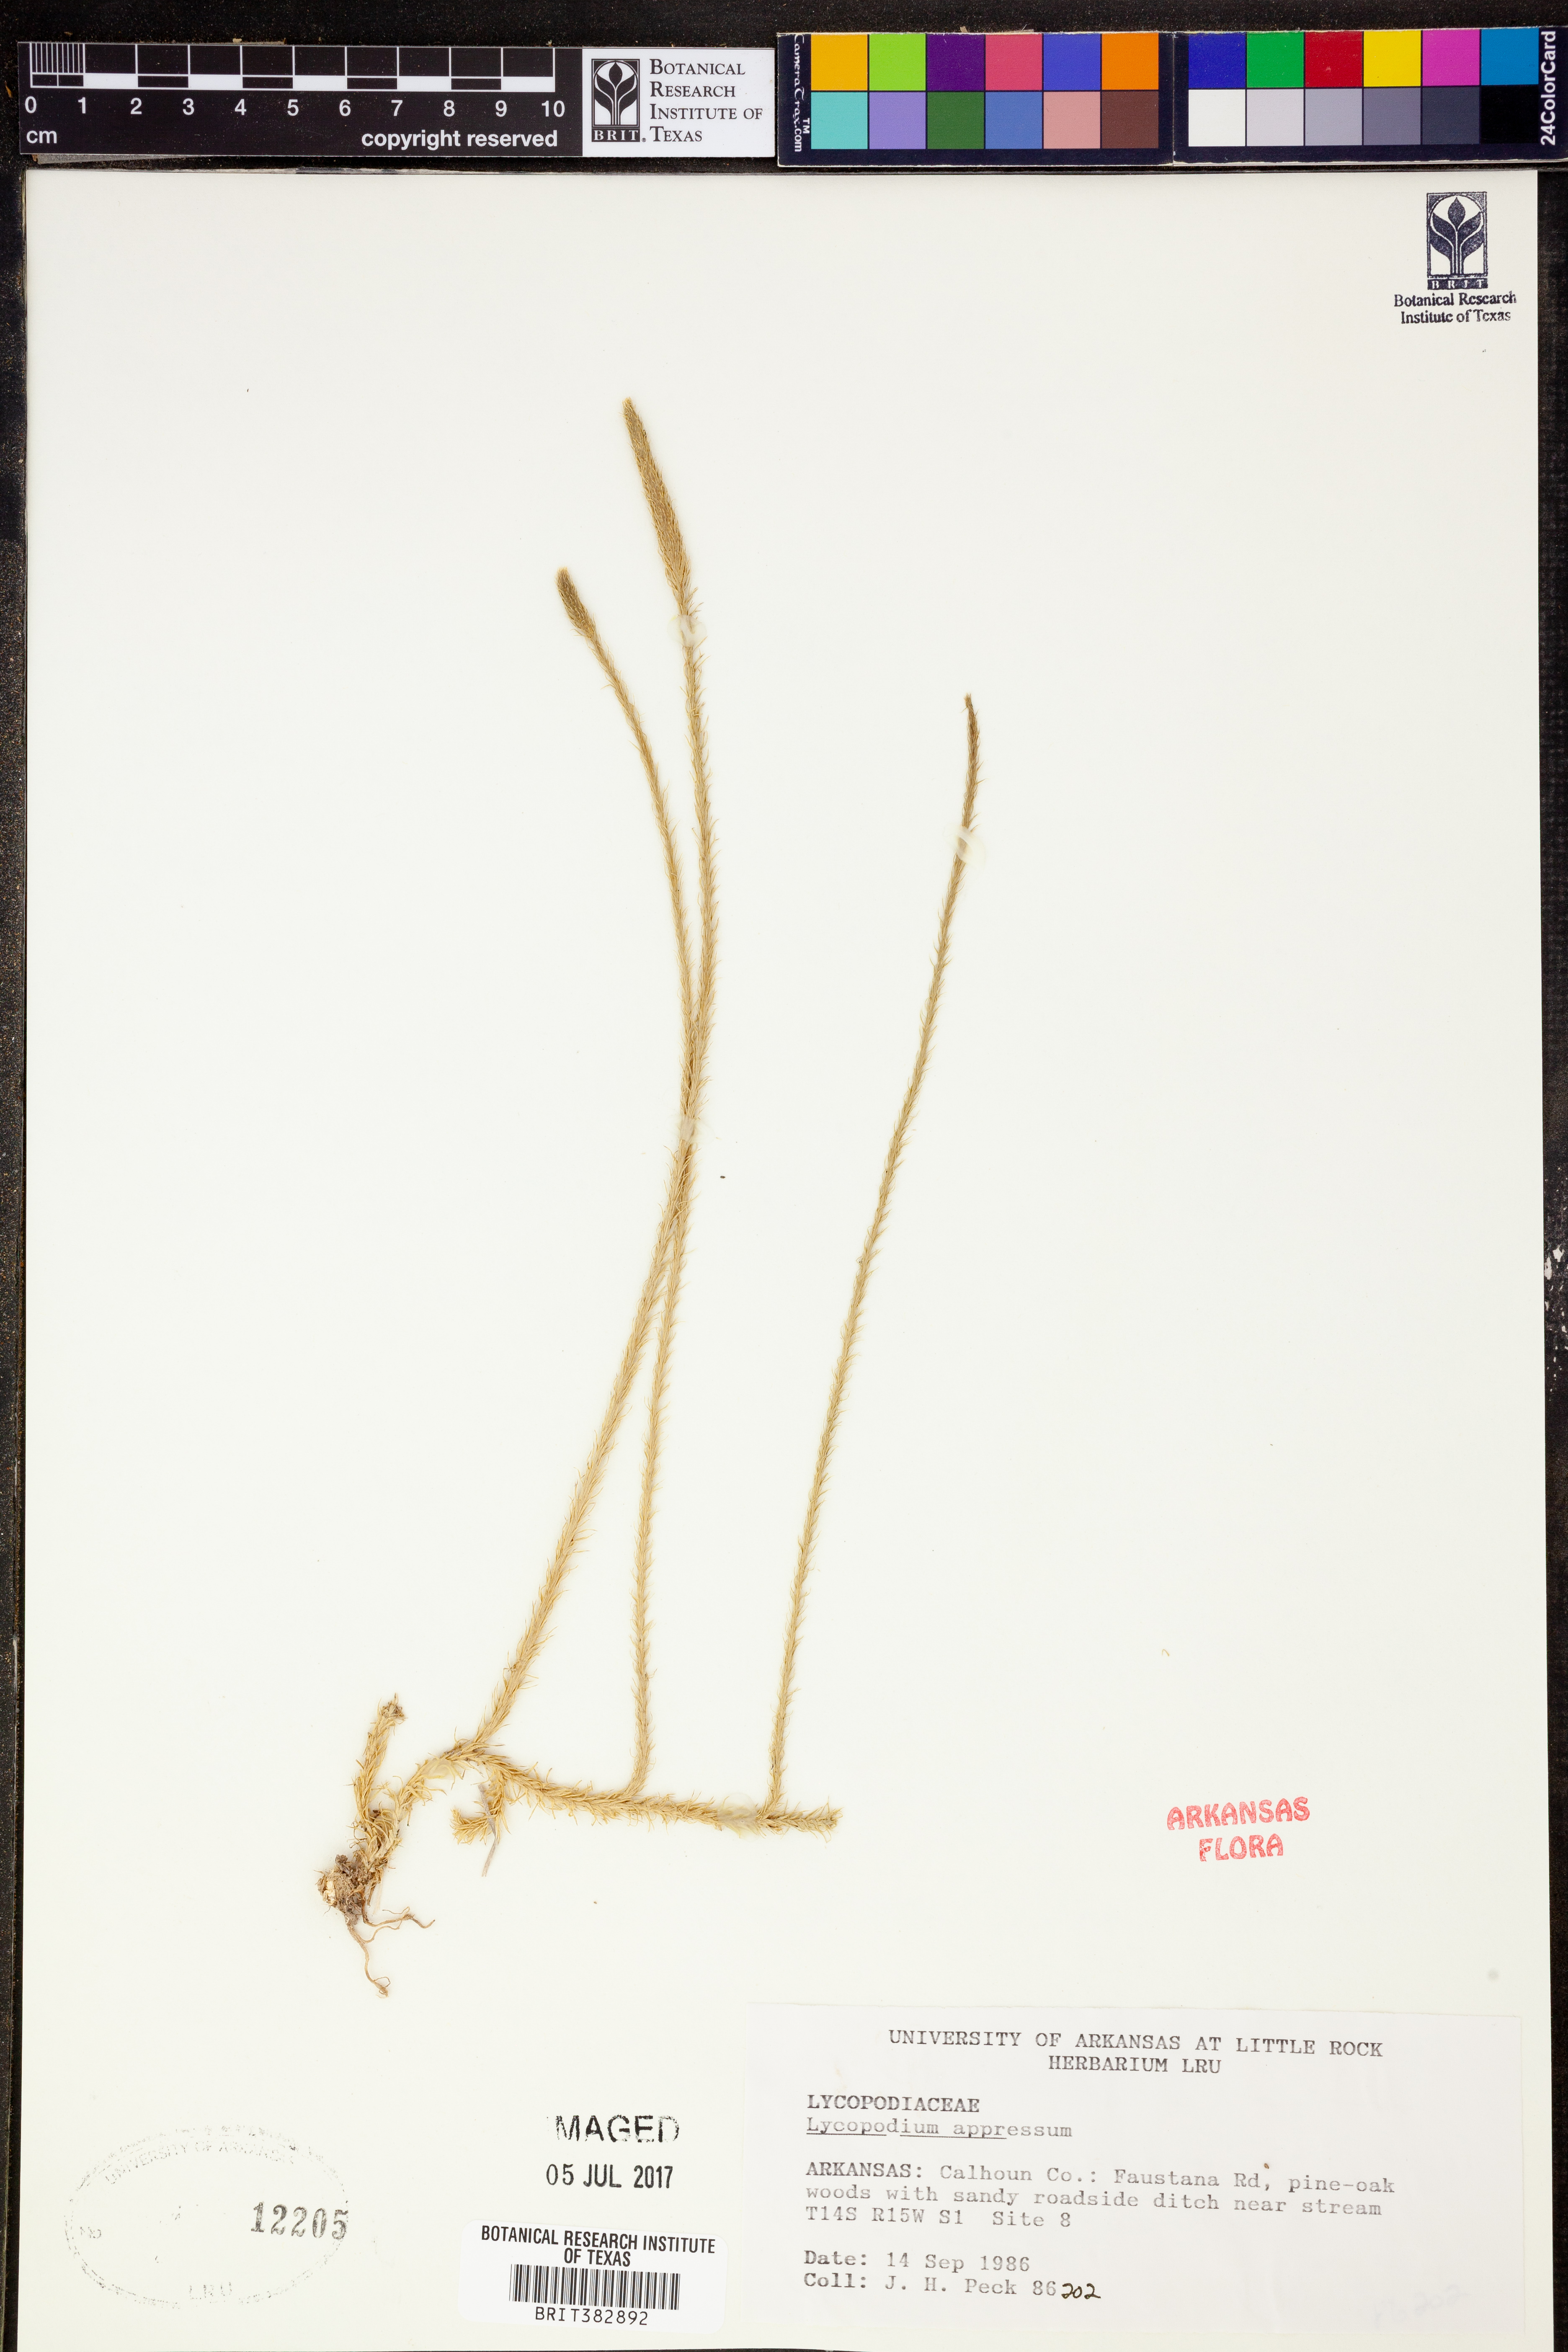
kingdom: Plantae
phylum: Tracheophyta
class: Lycopodiopsida
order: Lycopodiales
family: Lycopodiaceae
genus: Lycopodiella
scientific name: Lycopodiella appressa
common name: Appressed bog clubmoss
